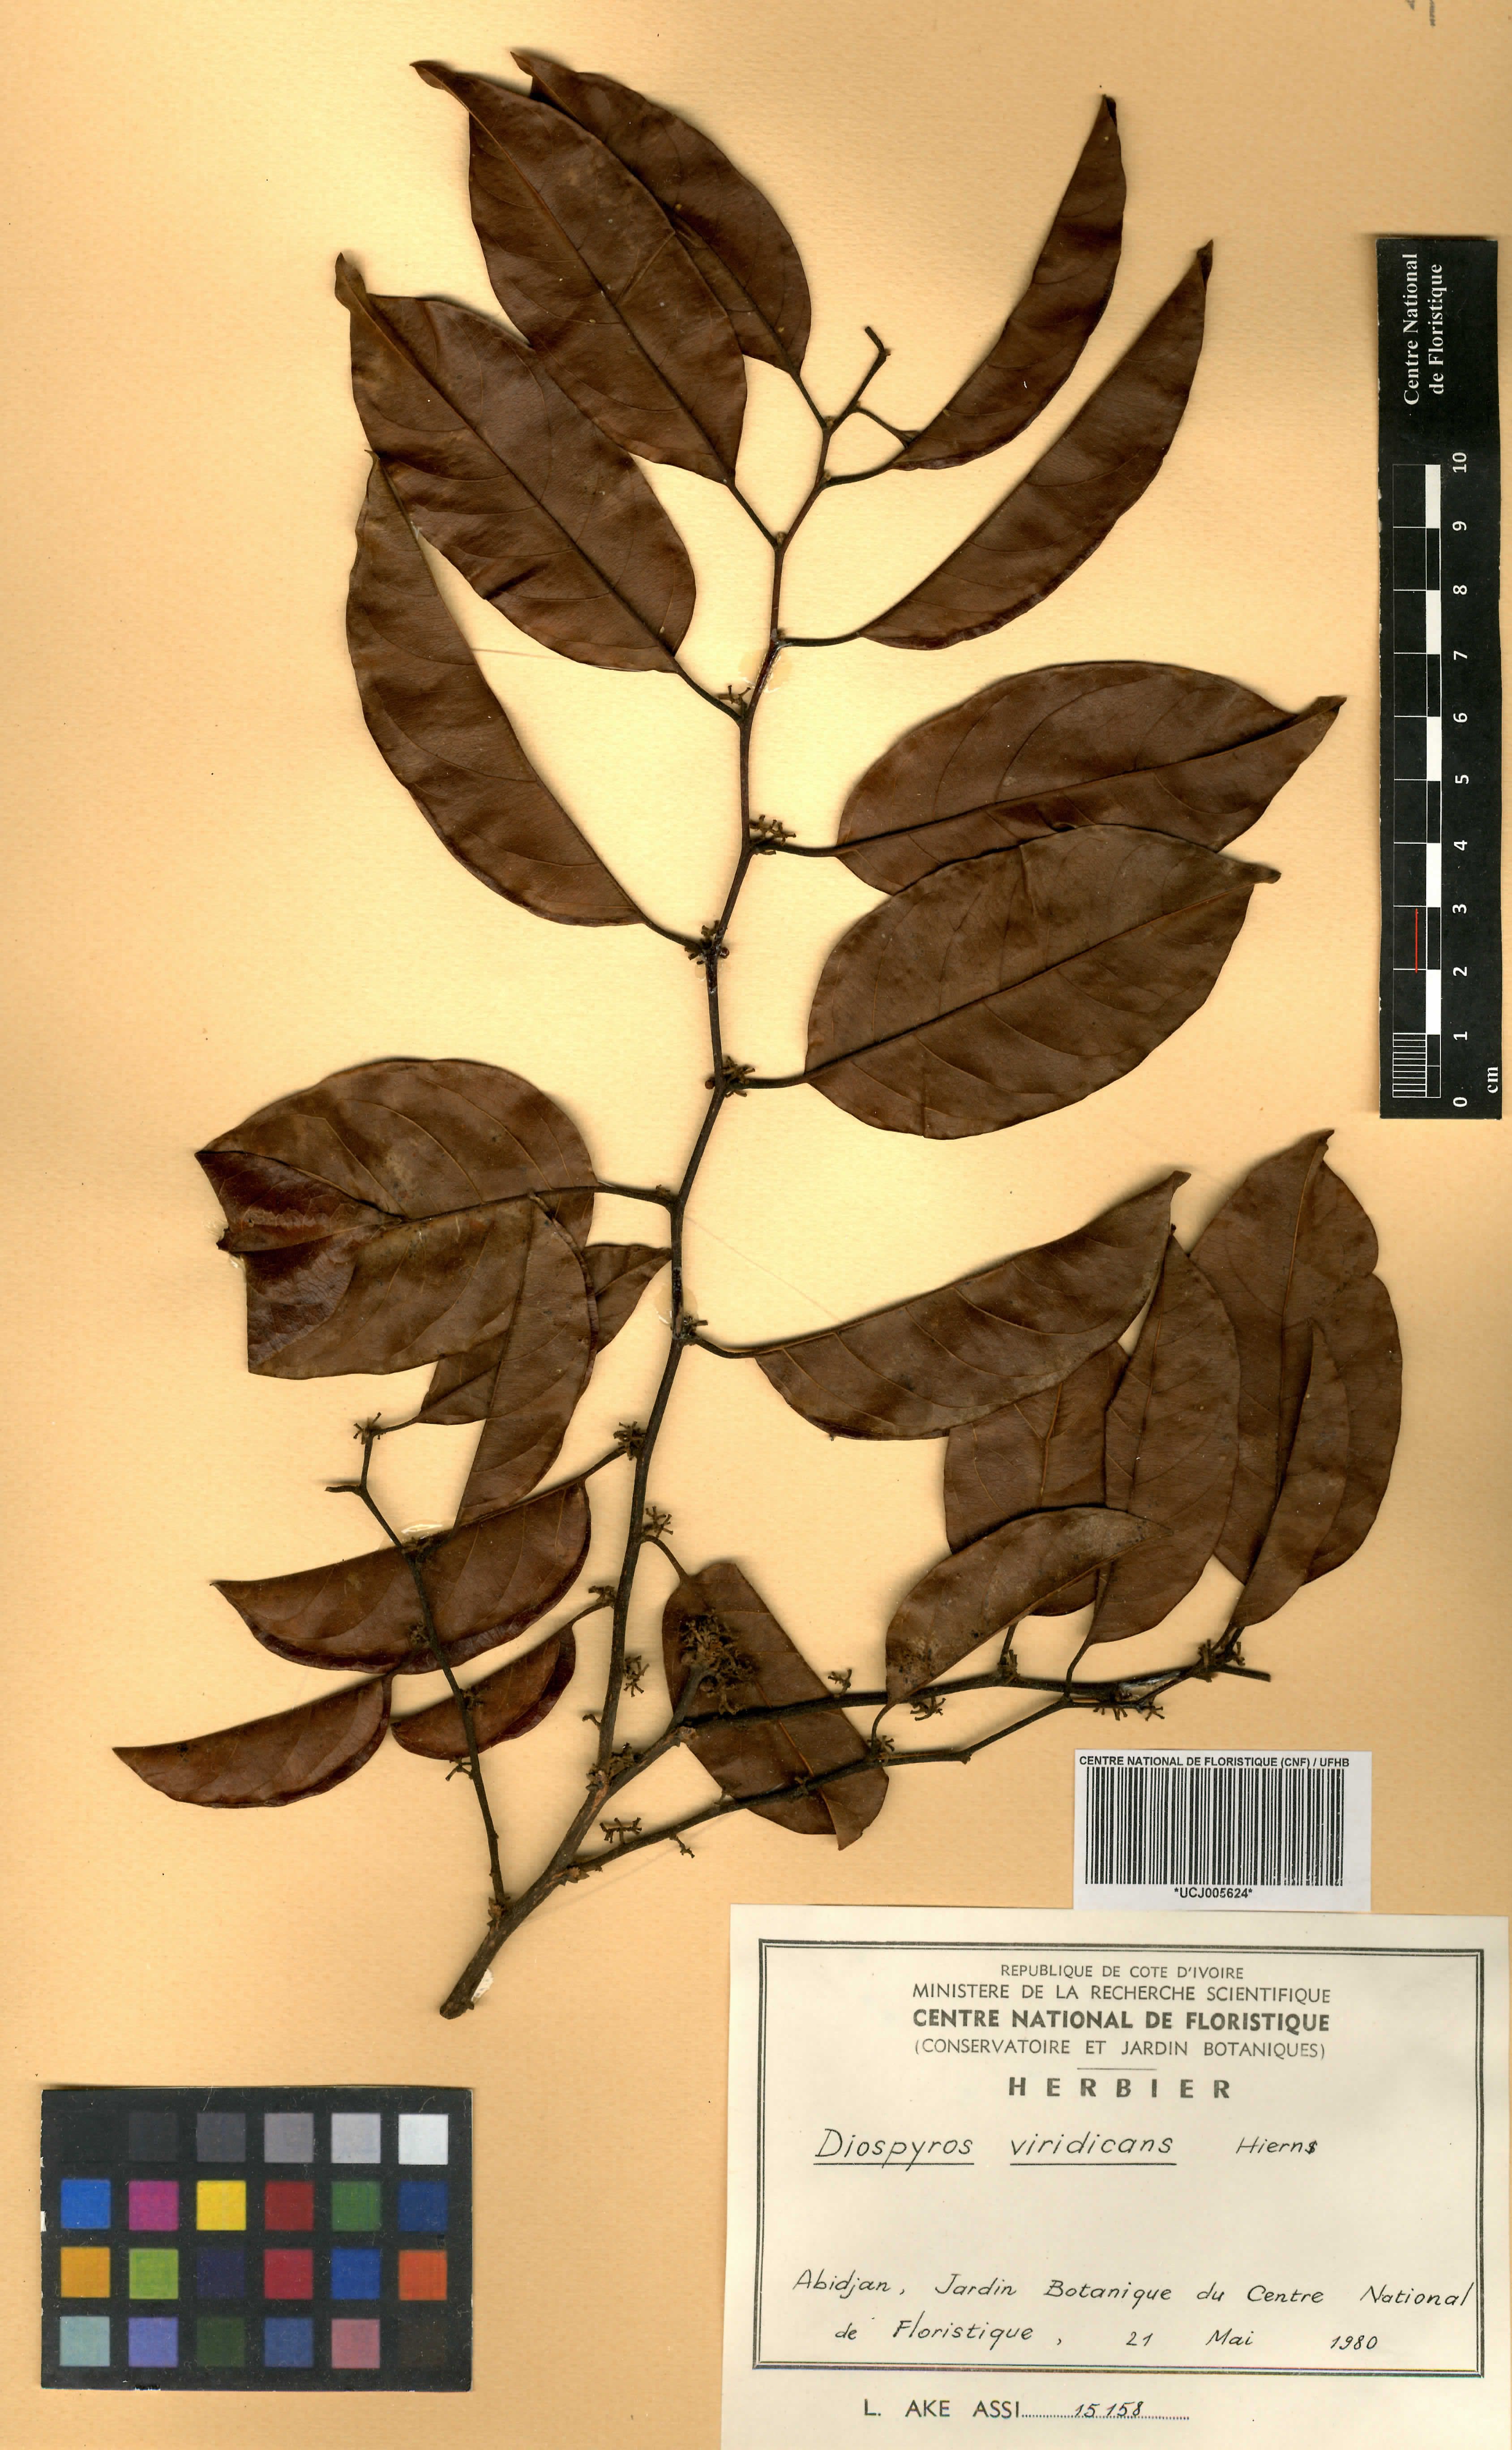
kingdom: Plantae
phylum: Tracheophyta
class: Magnoliopsida
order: Ericales
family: Ebenaceae
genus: Diospyros
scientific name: Diospyros viridicans
